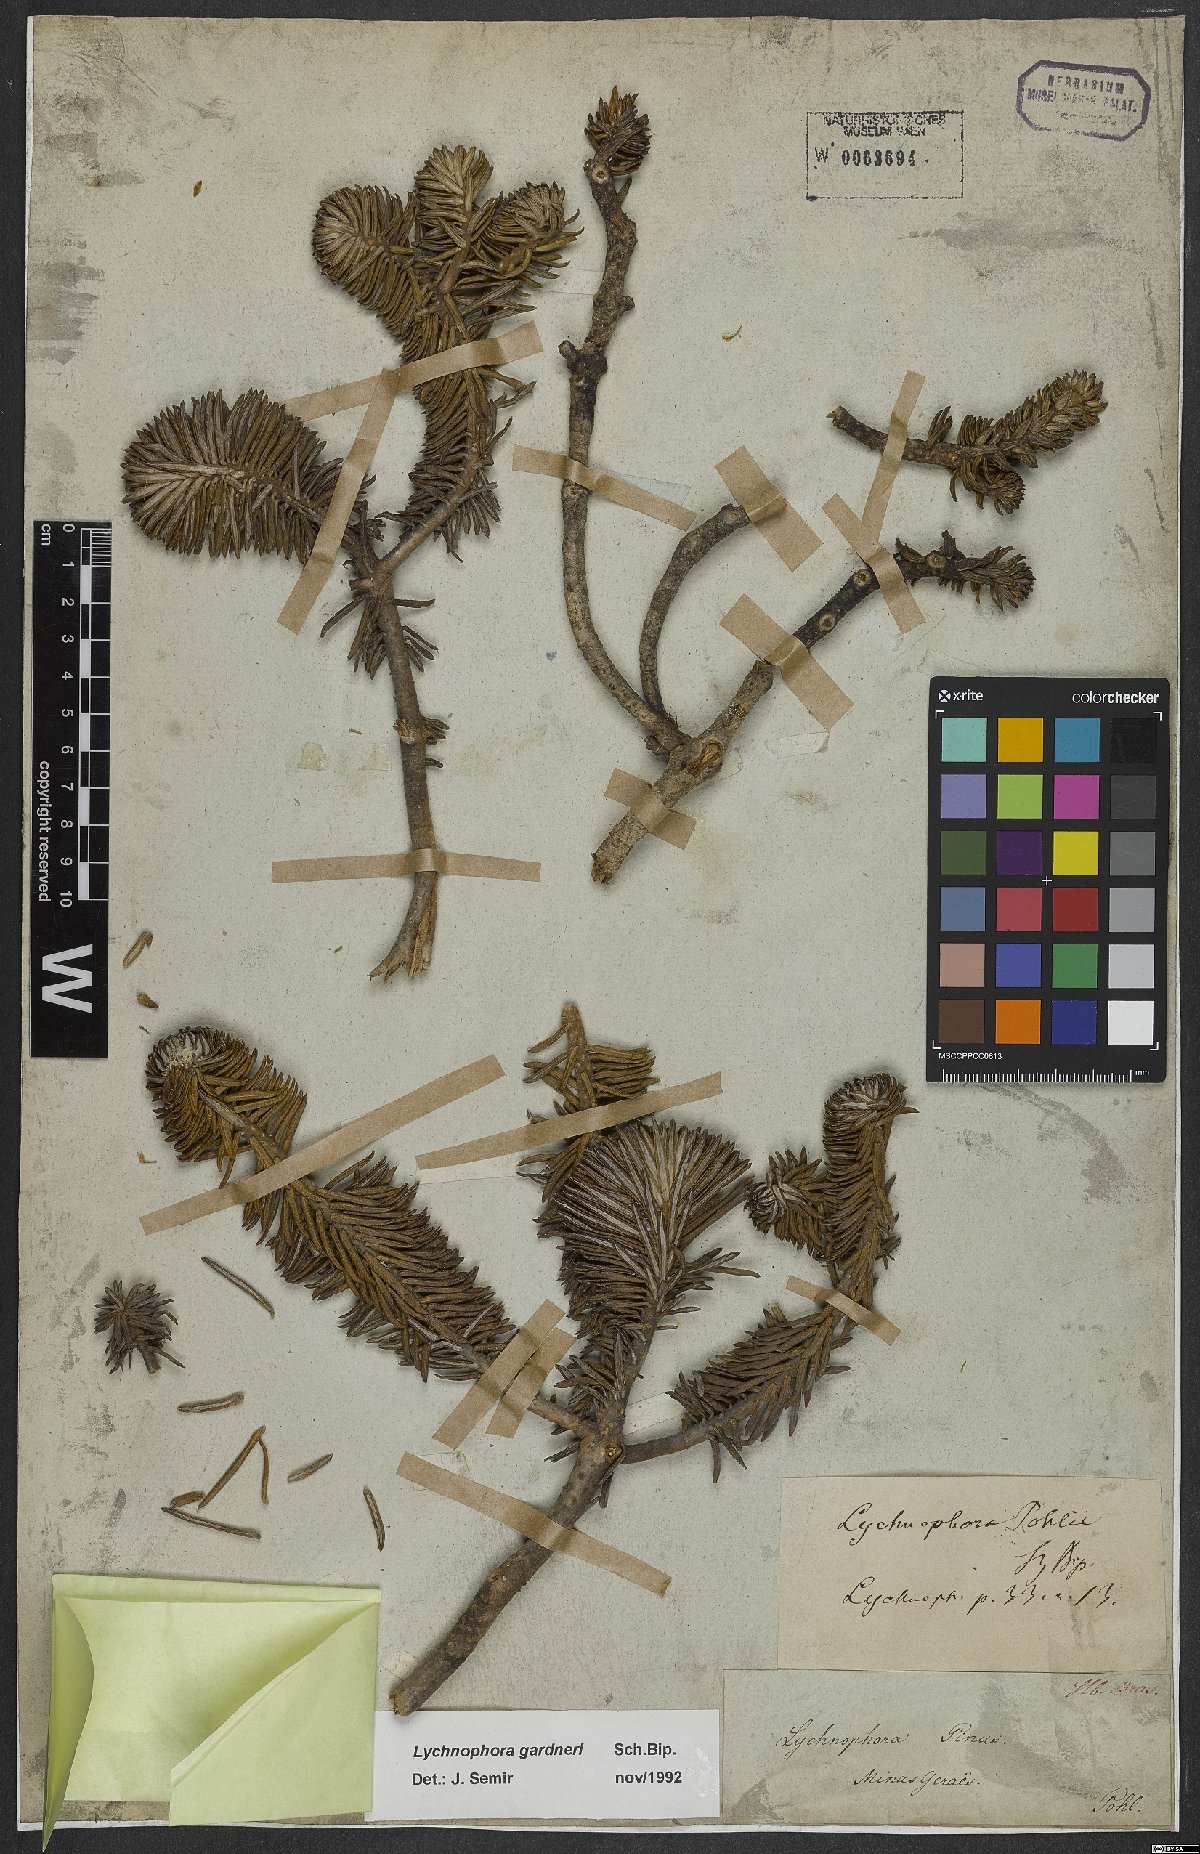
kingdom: Plantae
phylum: Tracheophyta
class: Magnoliopsida
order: Asterales
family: Asteraceae
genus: Lychnophora
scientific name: Lychnophora ericoides
